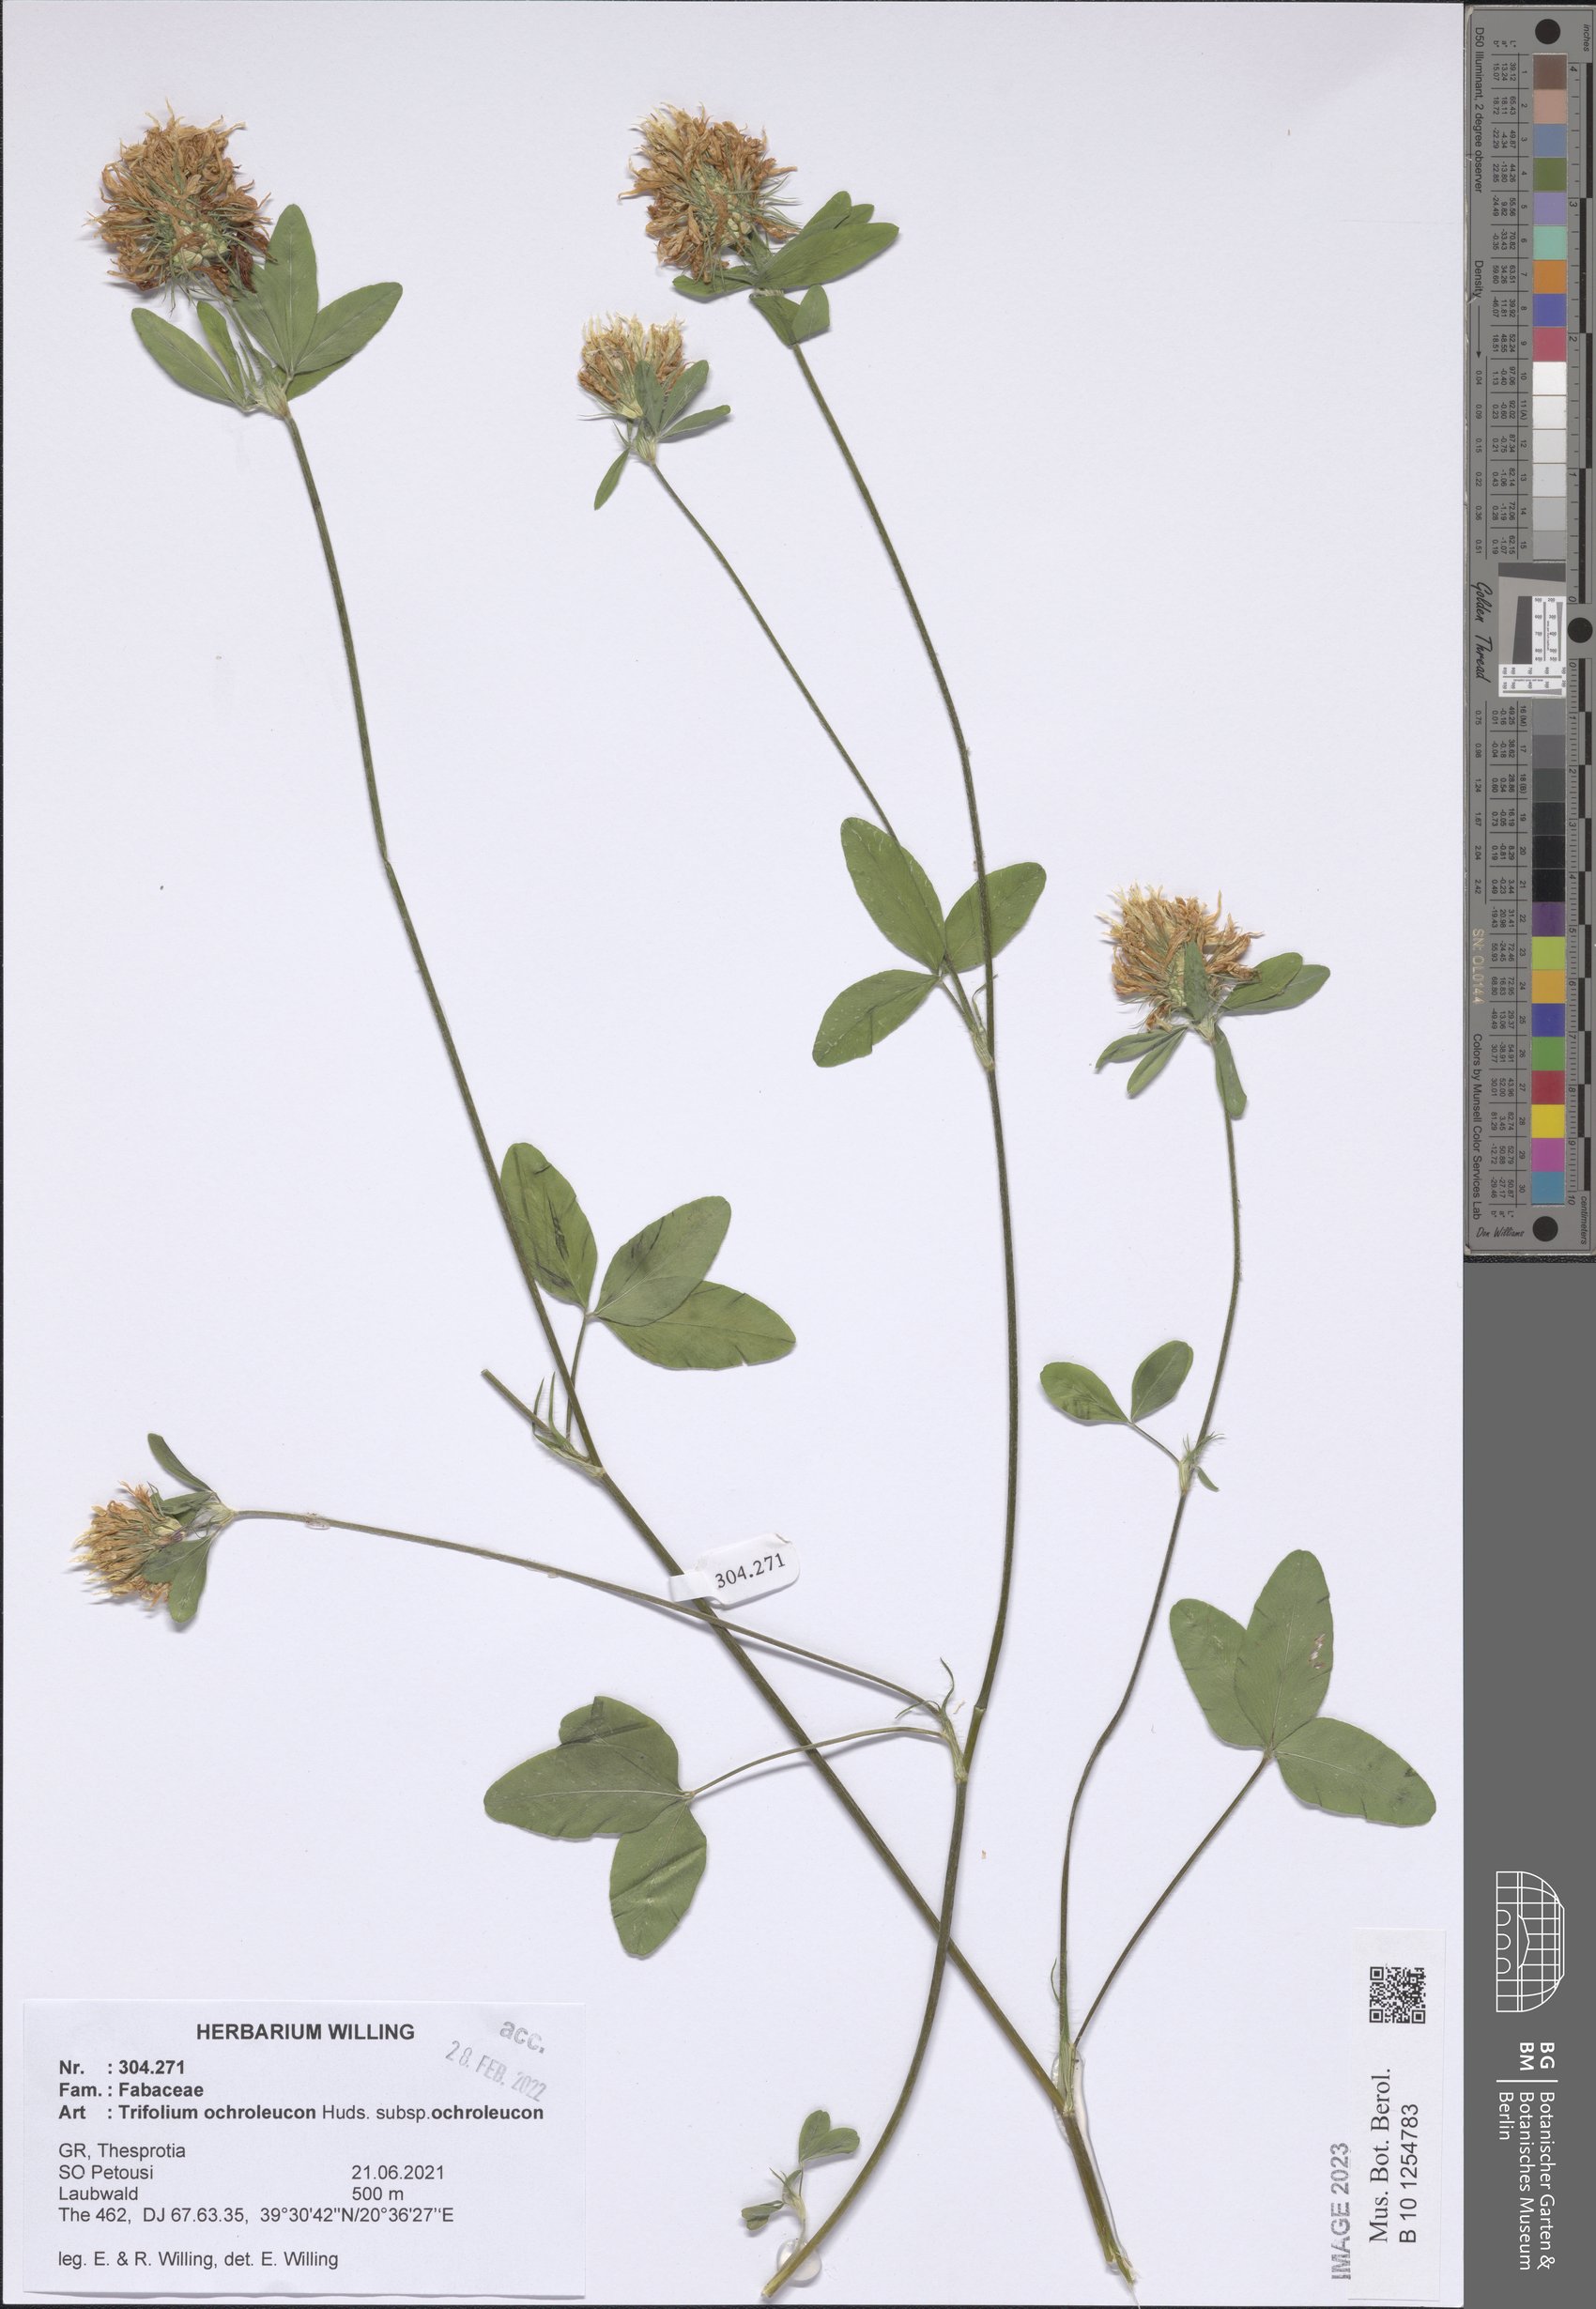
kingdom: Plantae
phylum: Tracheophyta
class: Magnoliopsida
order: Fabales
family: Fabaceae
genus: Trifolium
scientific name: Trifolium ochroleucon
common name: Sulphur clover
